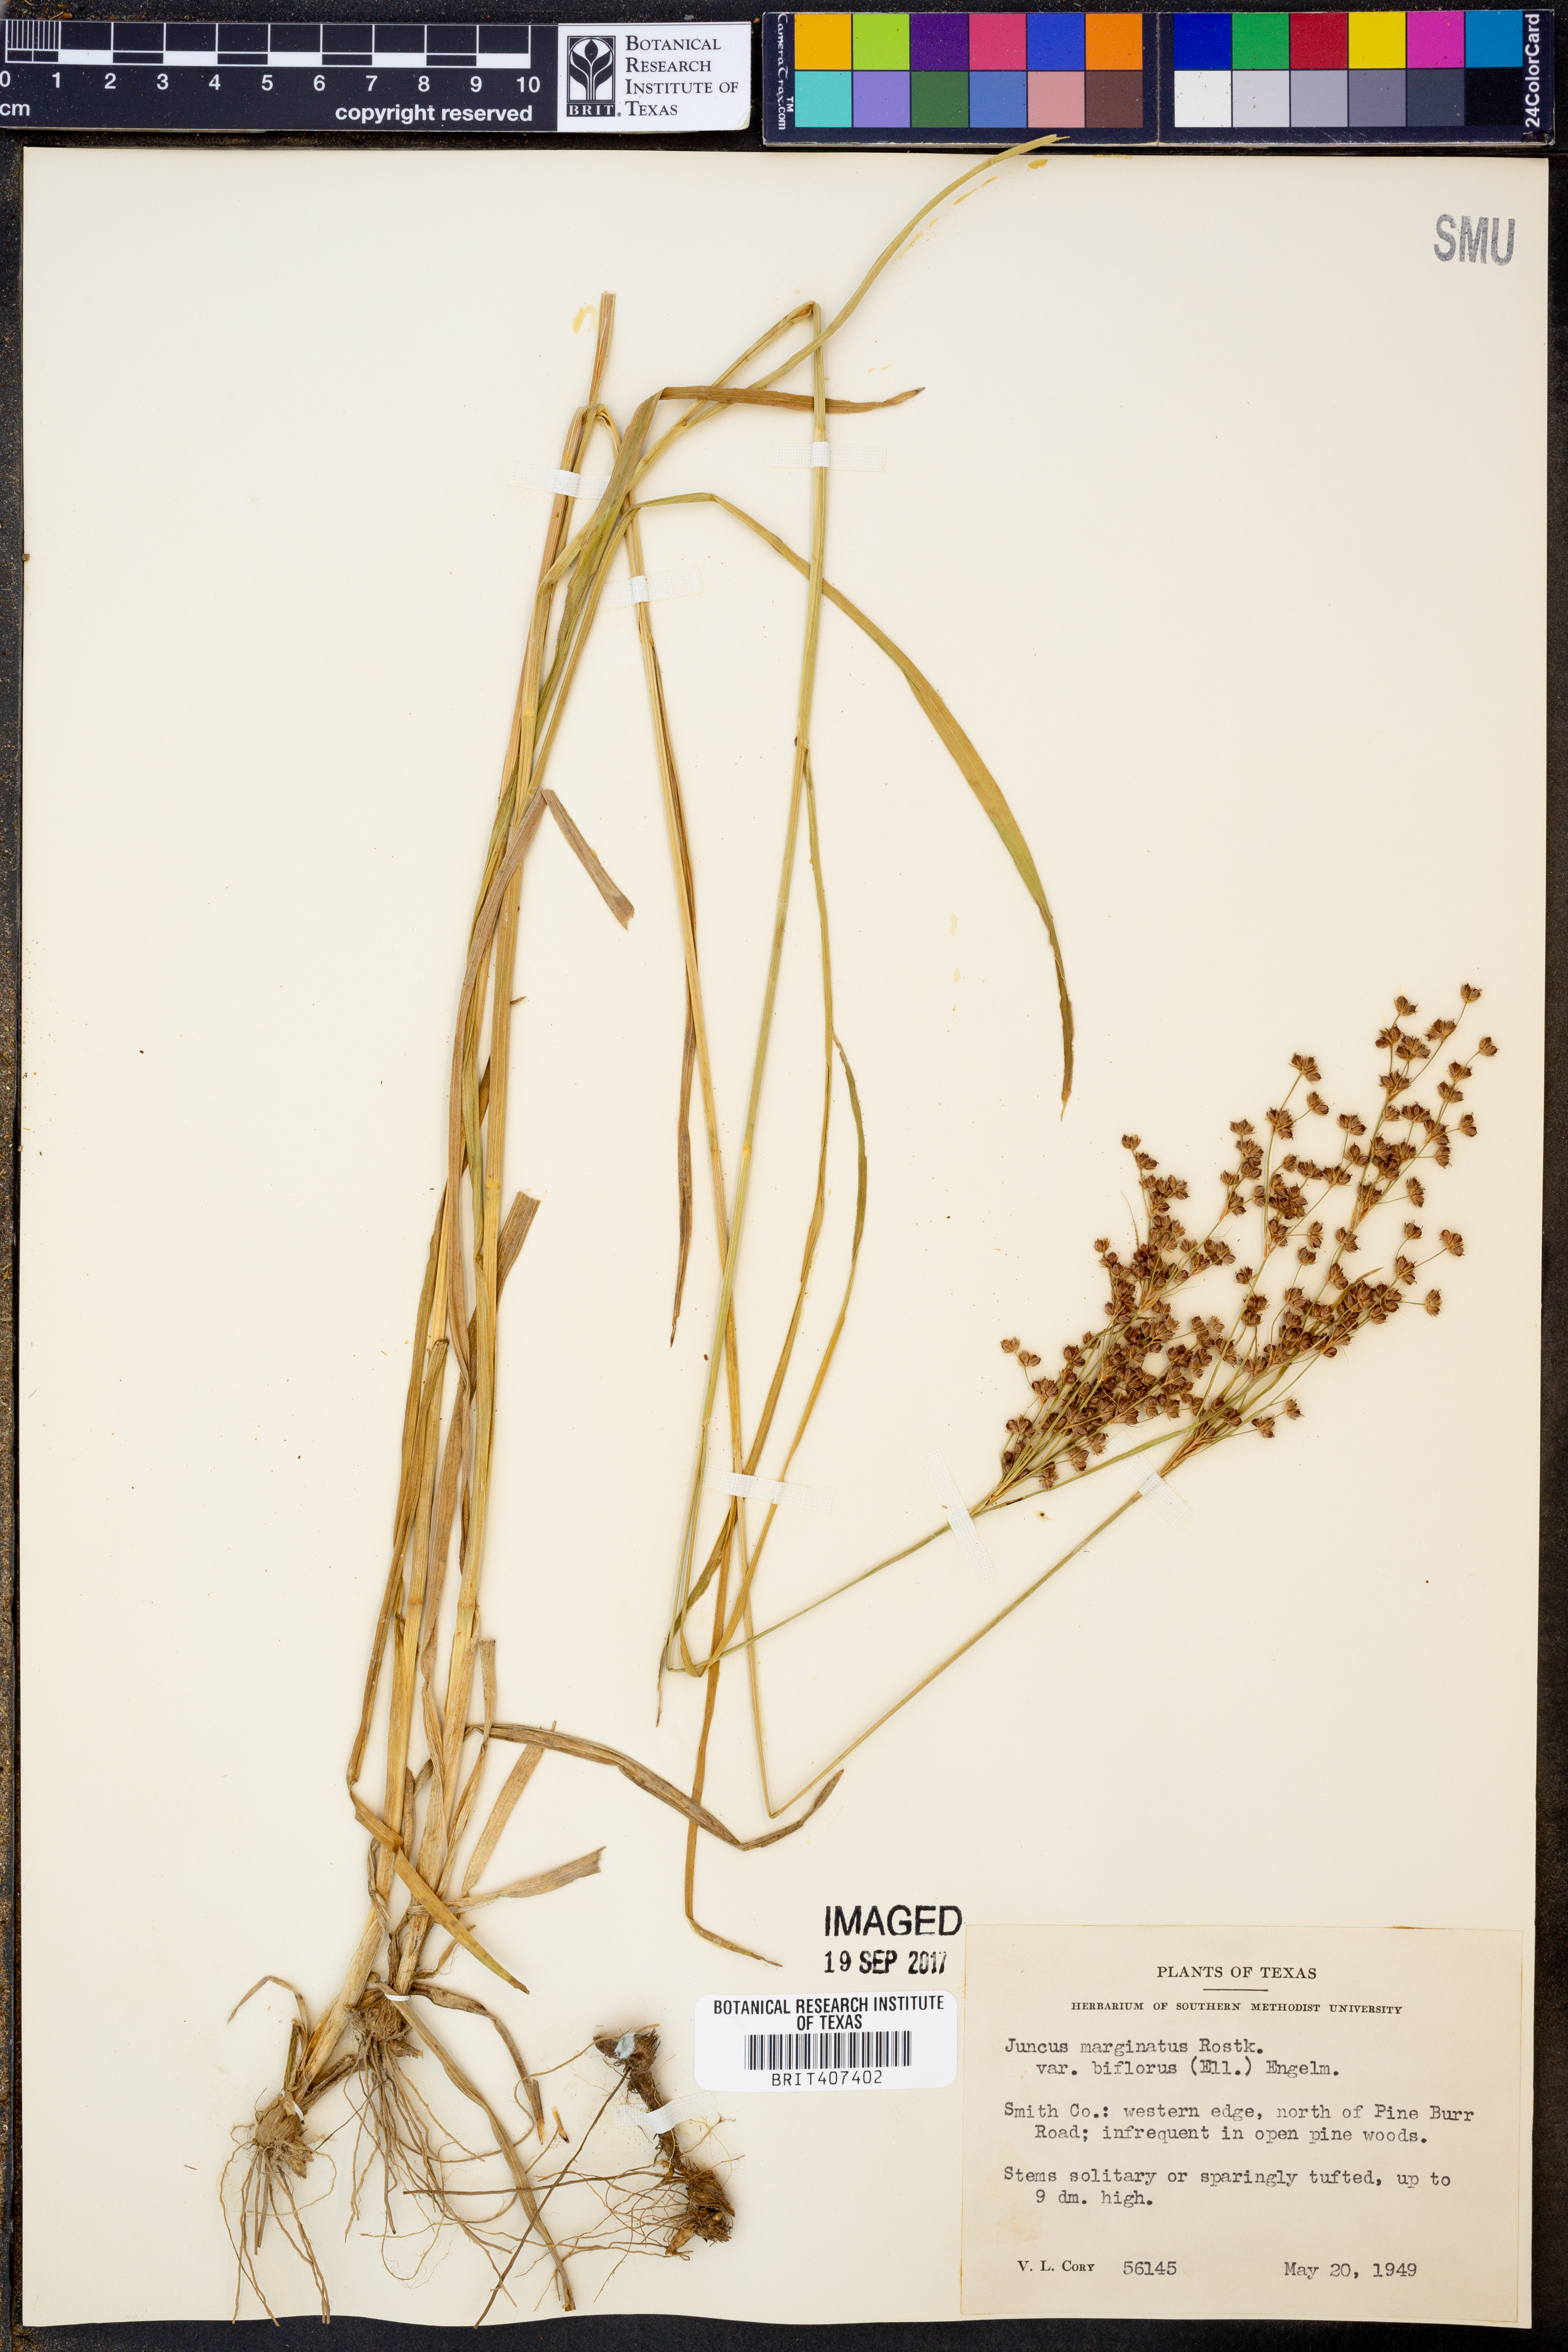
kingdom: Plantae
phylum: Tracheophyta
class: Liliopsida
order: Poales
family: Juncaceae
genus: Juncus
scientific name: Juncus biflorus
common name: Two-flowered rush
